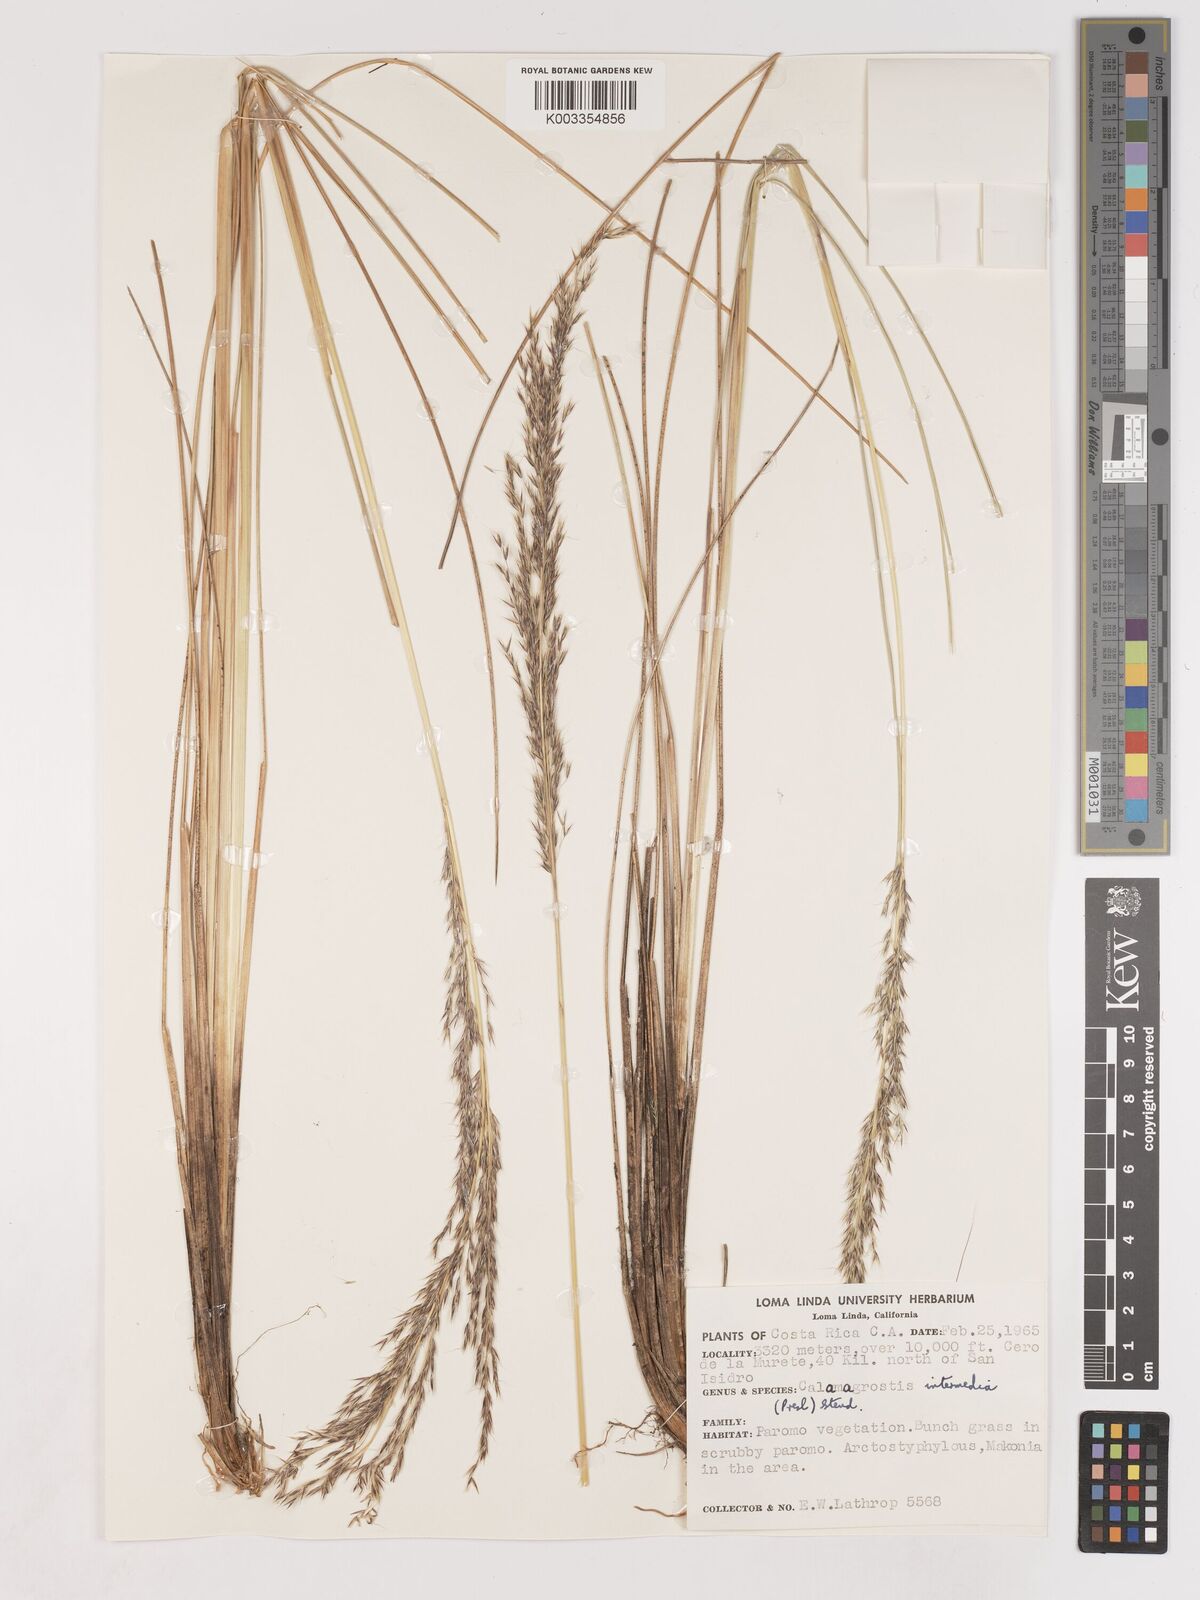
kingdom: Plantae
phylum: Tracheophyta
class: Liliopsida
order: Poales
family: Poaceae
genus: Cinnagrostis
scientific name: Cinnagrostis intermedia
